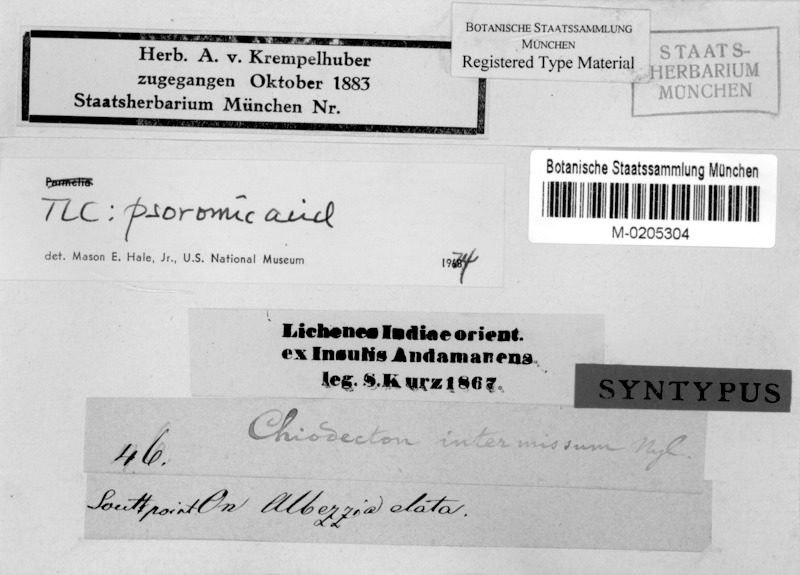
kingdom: Fungi
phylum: Ascomycota
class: Arthoniomycetes
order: Arthoniales
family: Roccellaceae
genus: Chiodecton
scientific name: Chiodecton
